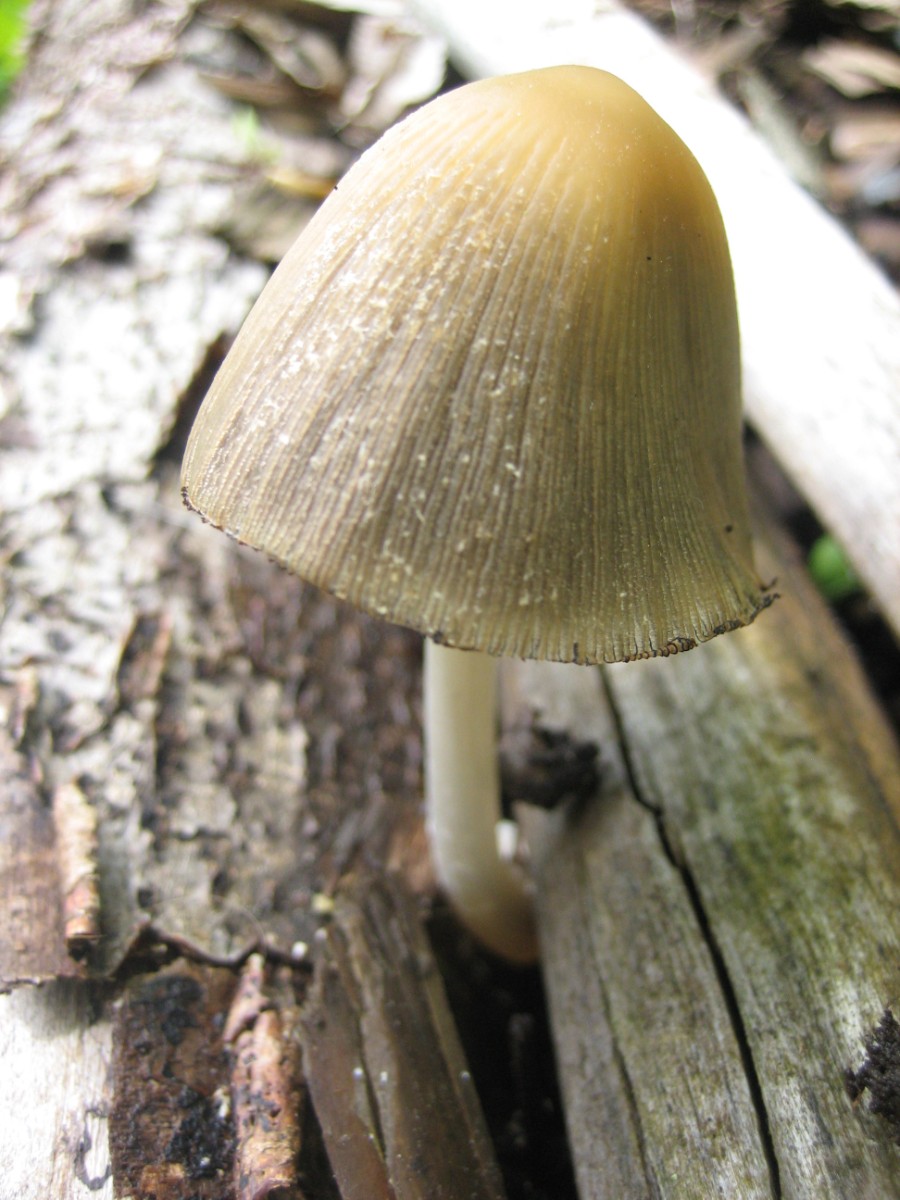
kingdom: Fungi
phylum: Basidiomycota
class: Agaricomycetes
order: Agaricales
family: Psathyrellaceae
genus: Coprinellus
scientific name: Coprinellus
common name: blækhat
